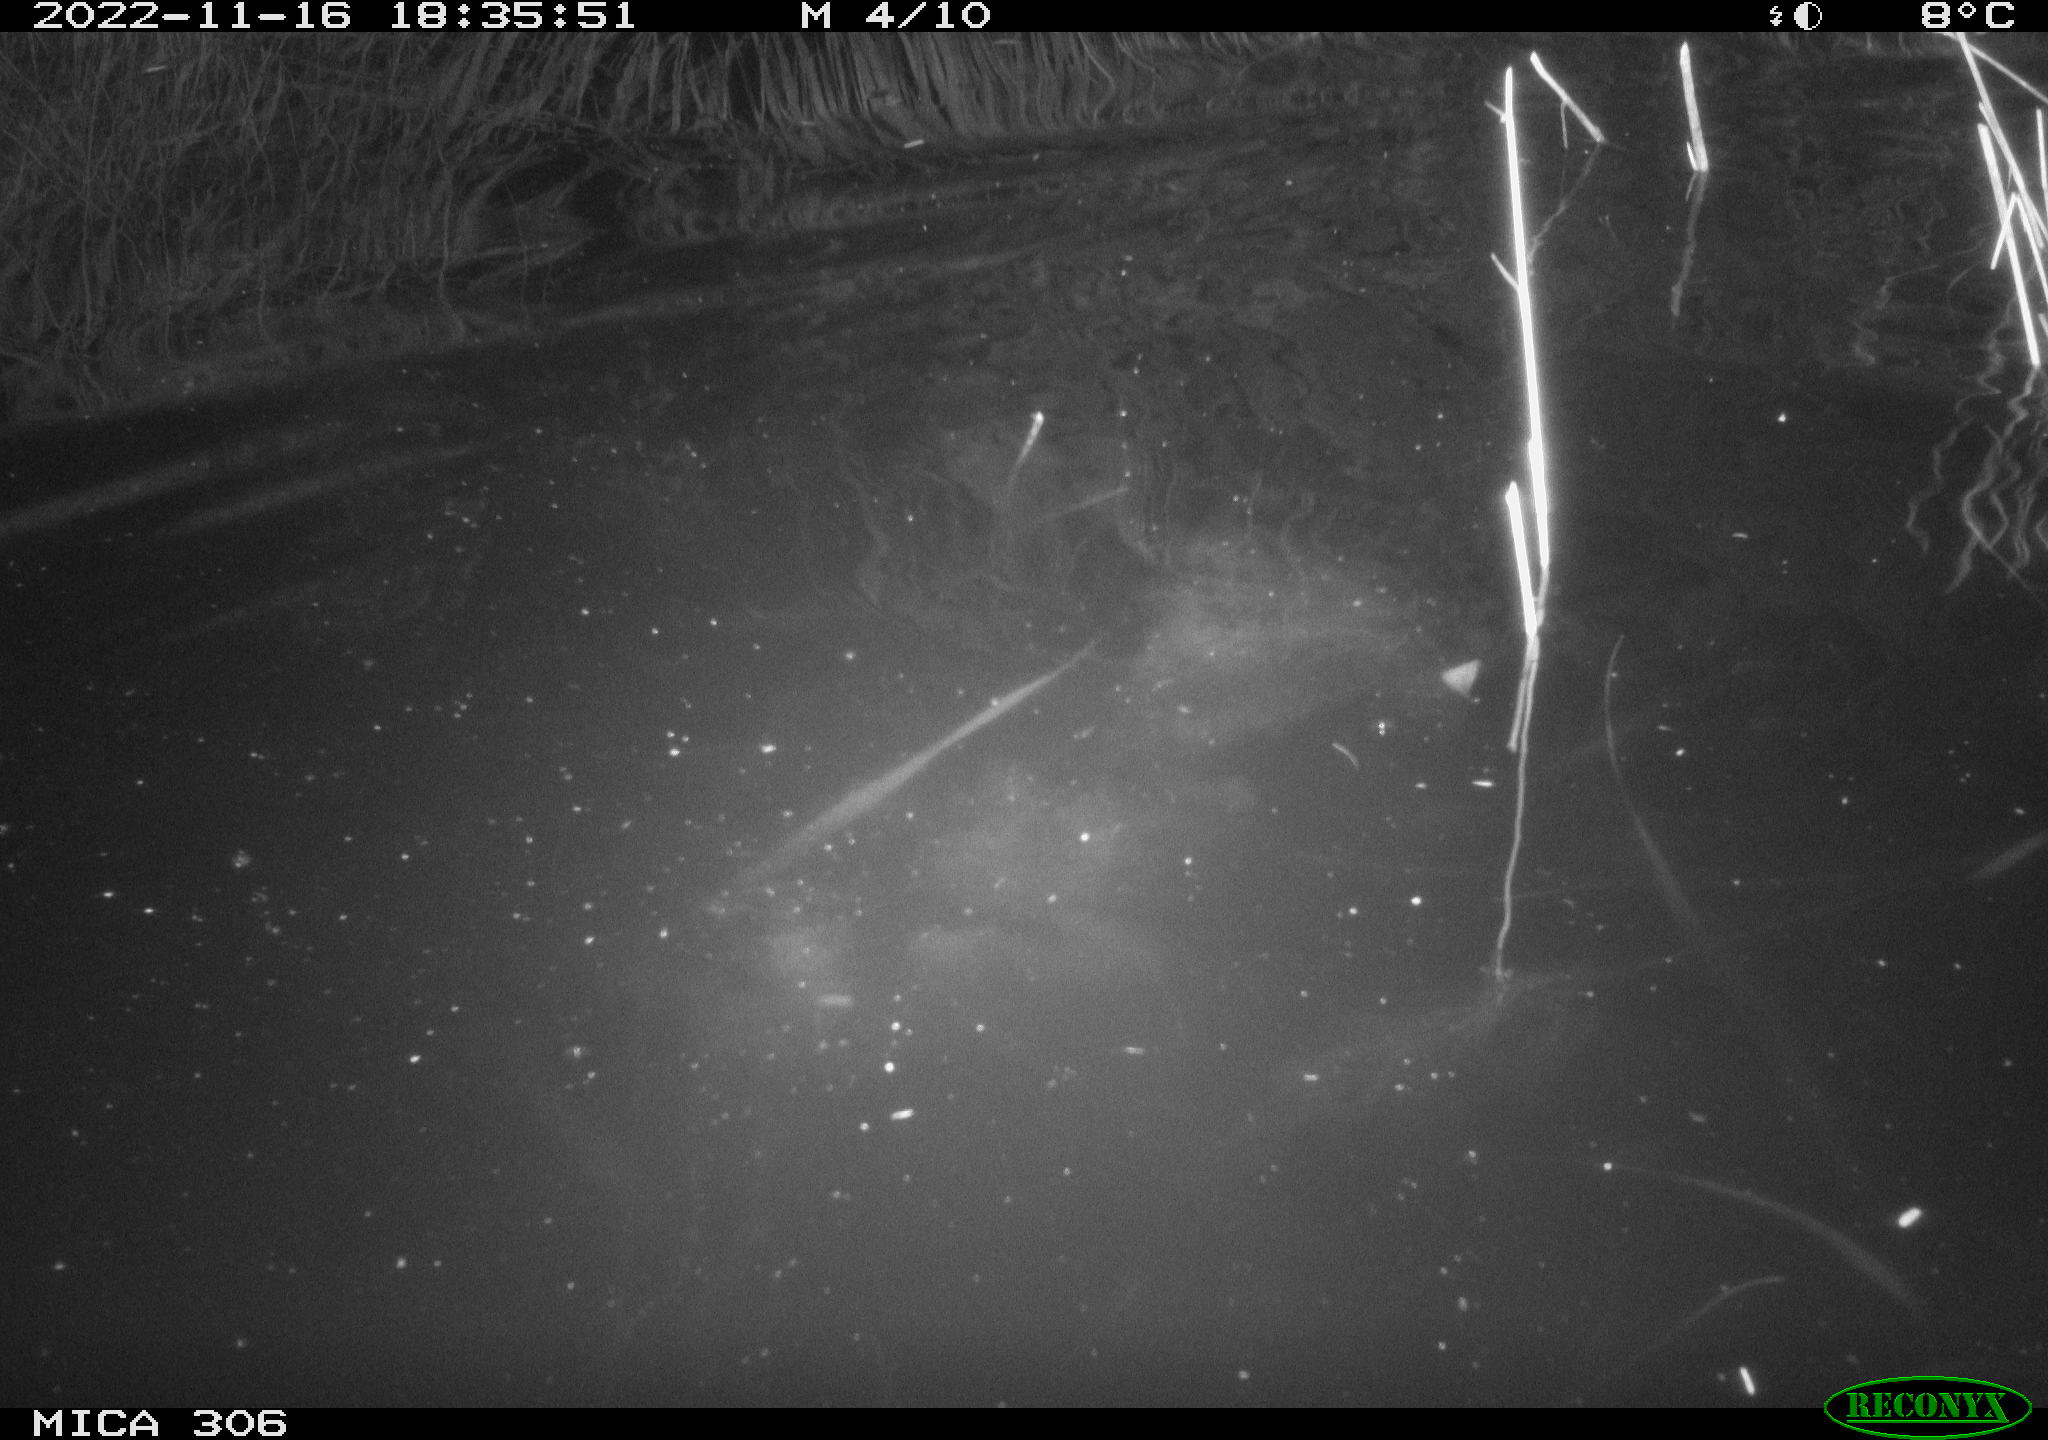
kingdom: Animalia
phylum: Chordata
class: Mammalia
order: Rodentia
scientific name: Rodentia
